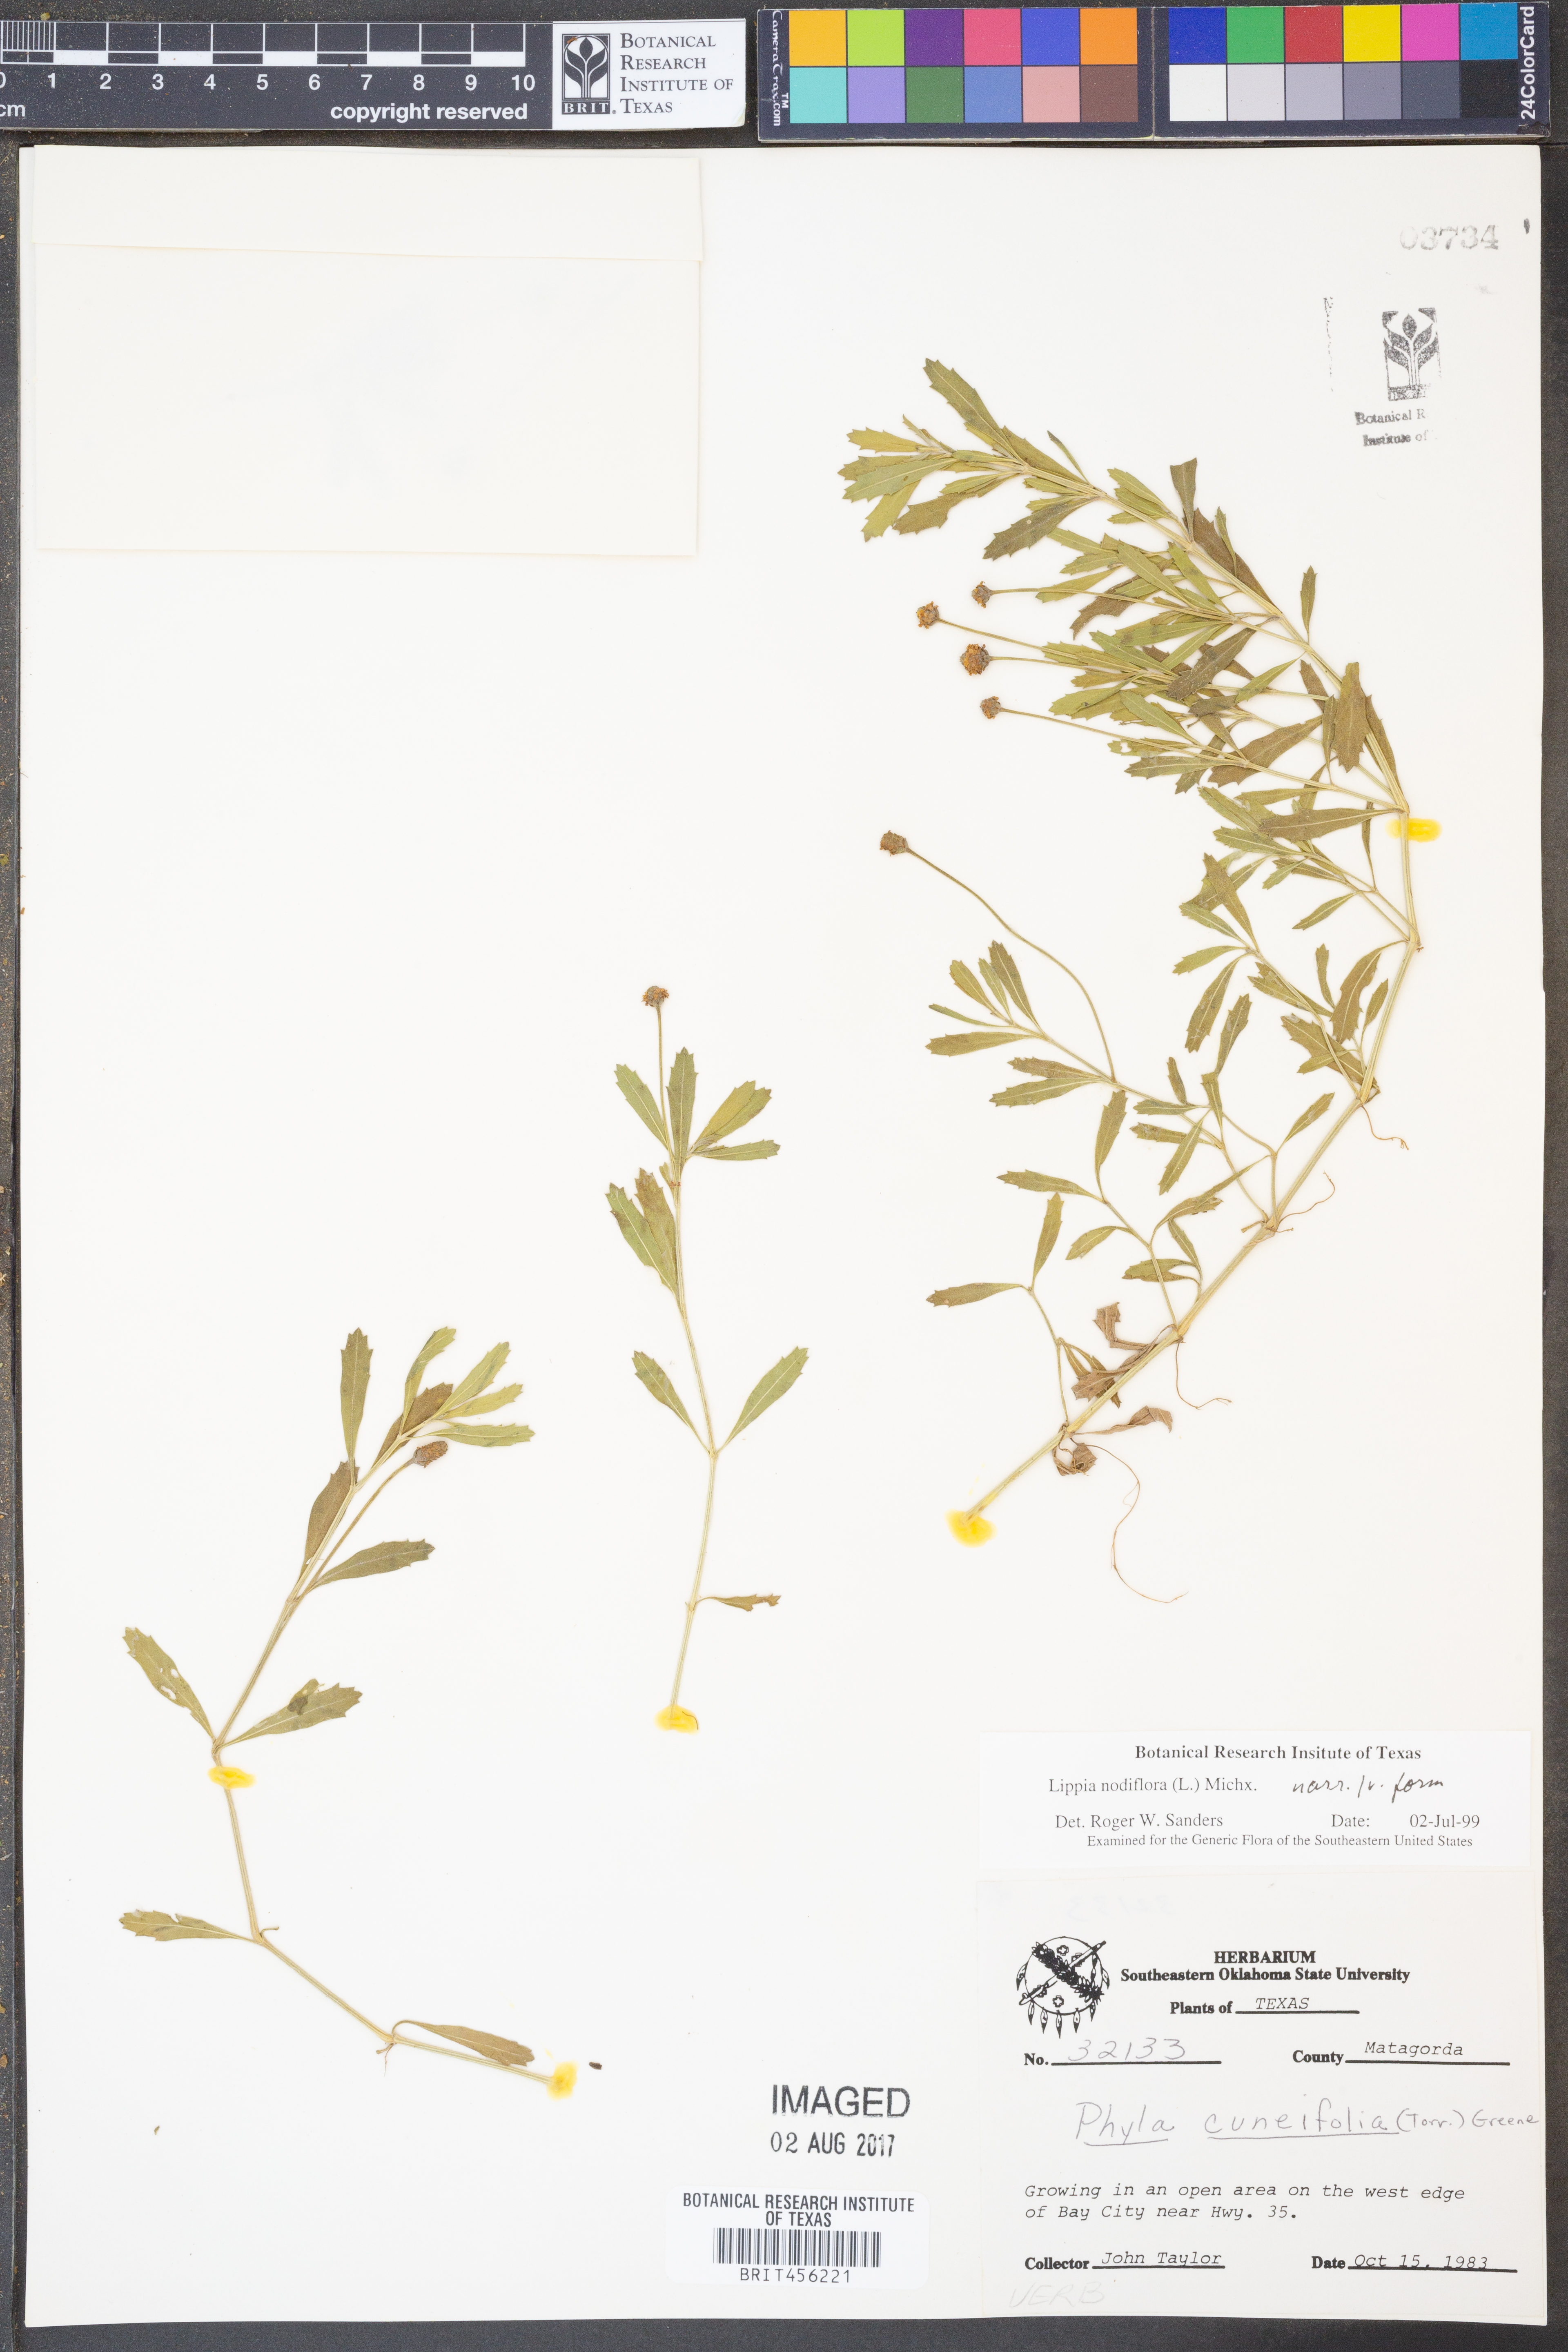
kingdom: Plantae
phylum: Tracheophyta
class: Magnoliopsida
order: Lamiales
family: Verbenaceae
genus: Phyla
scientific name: Phyla nodiflora
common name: Frogfruit
